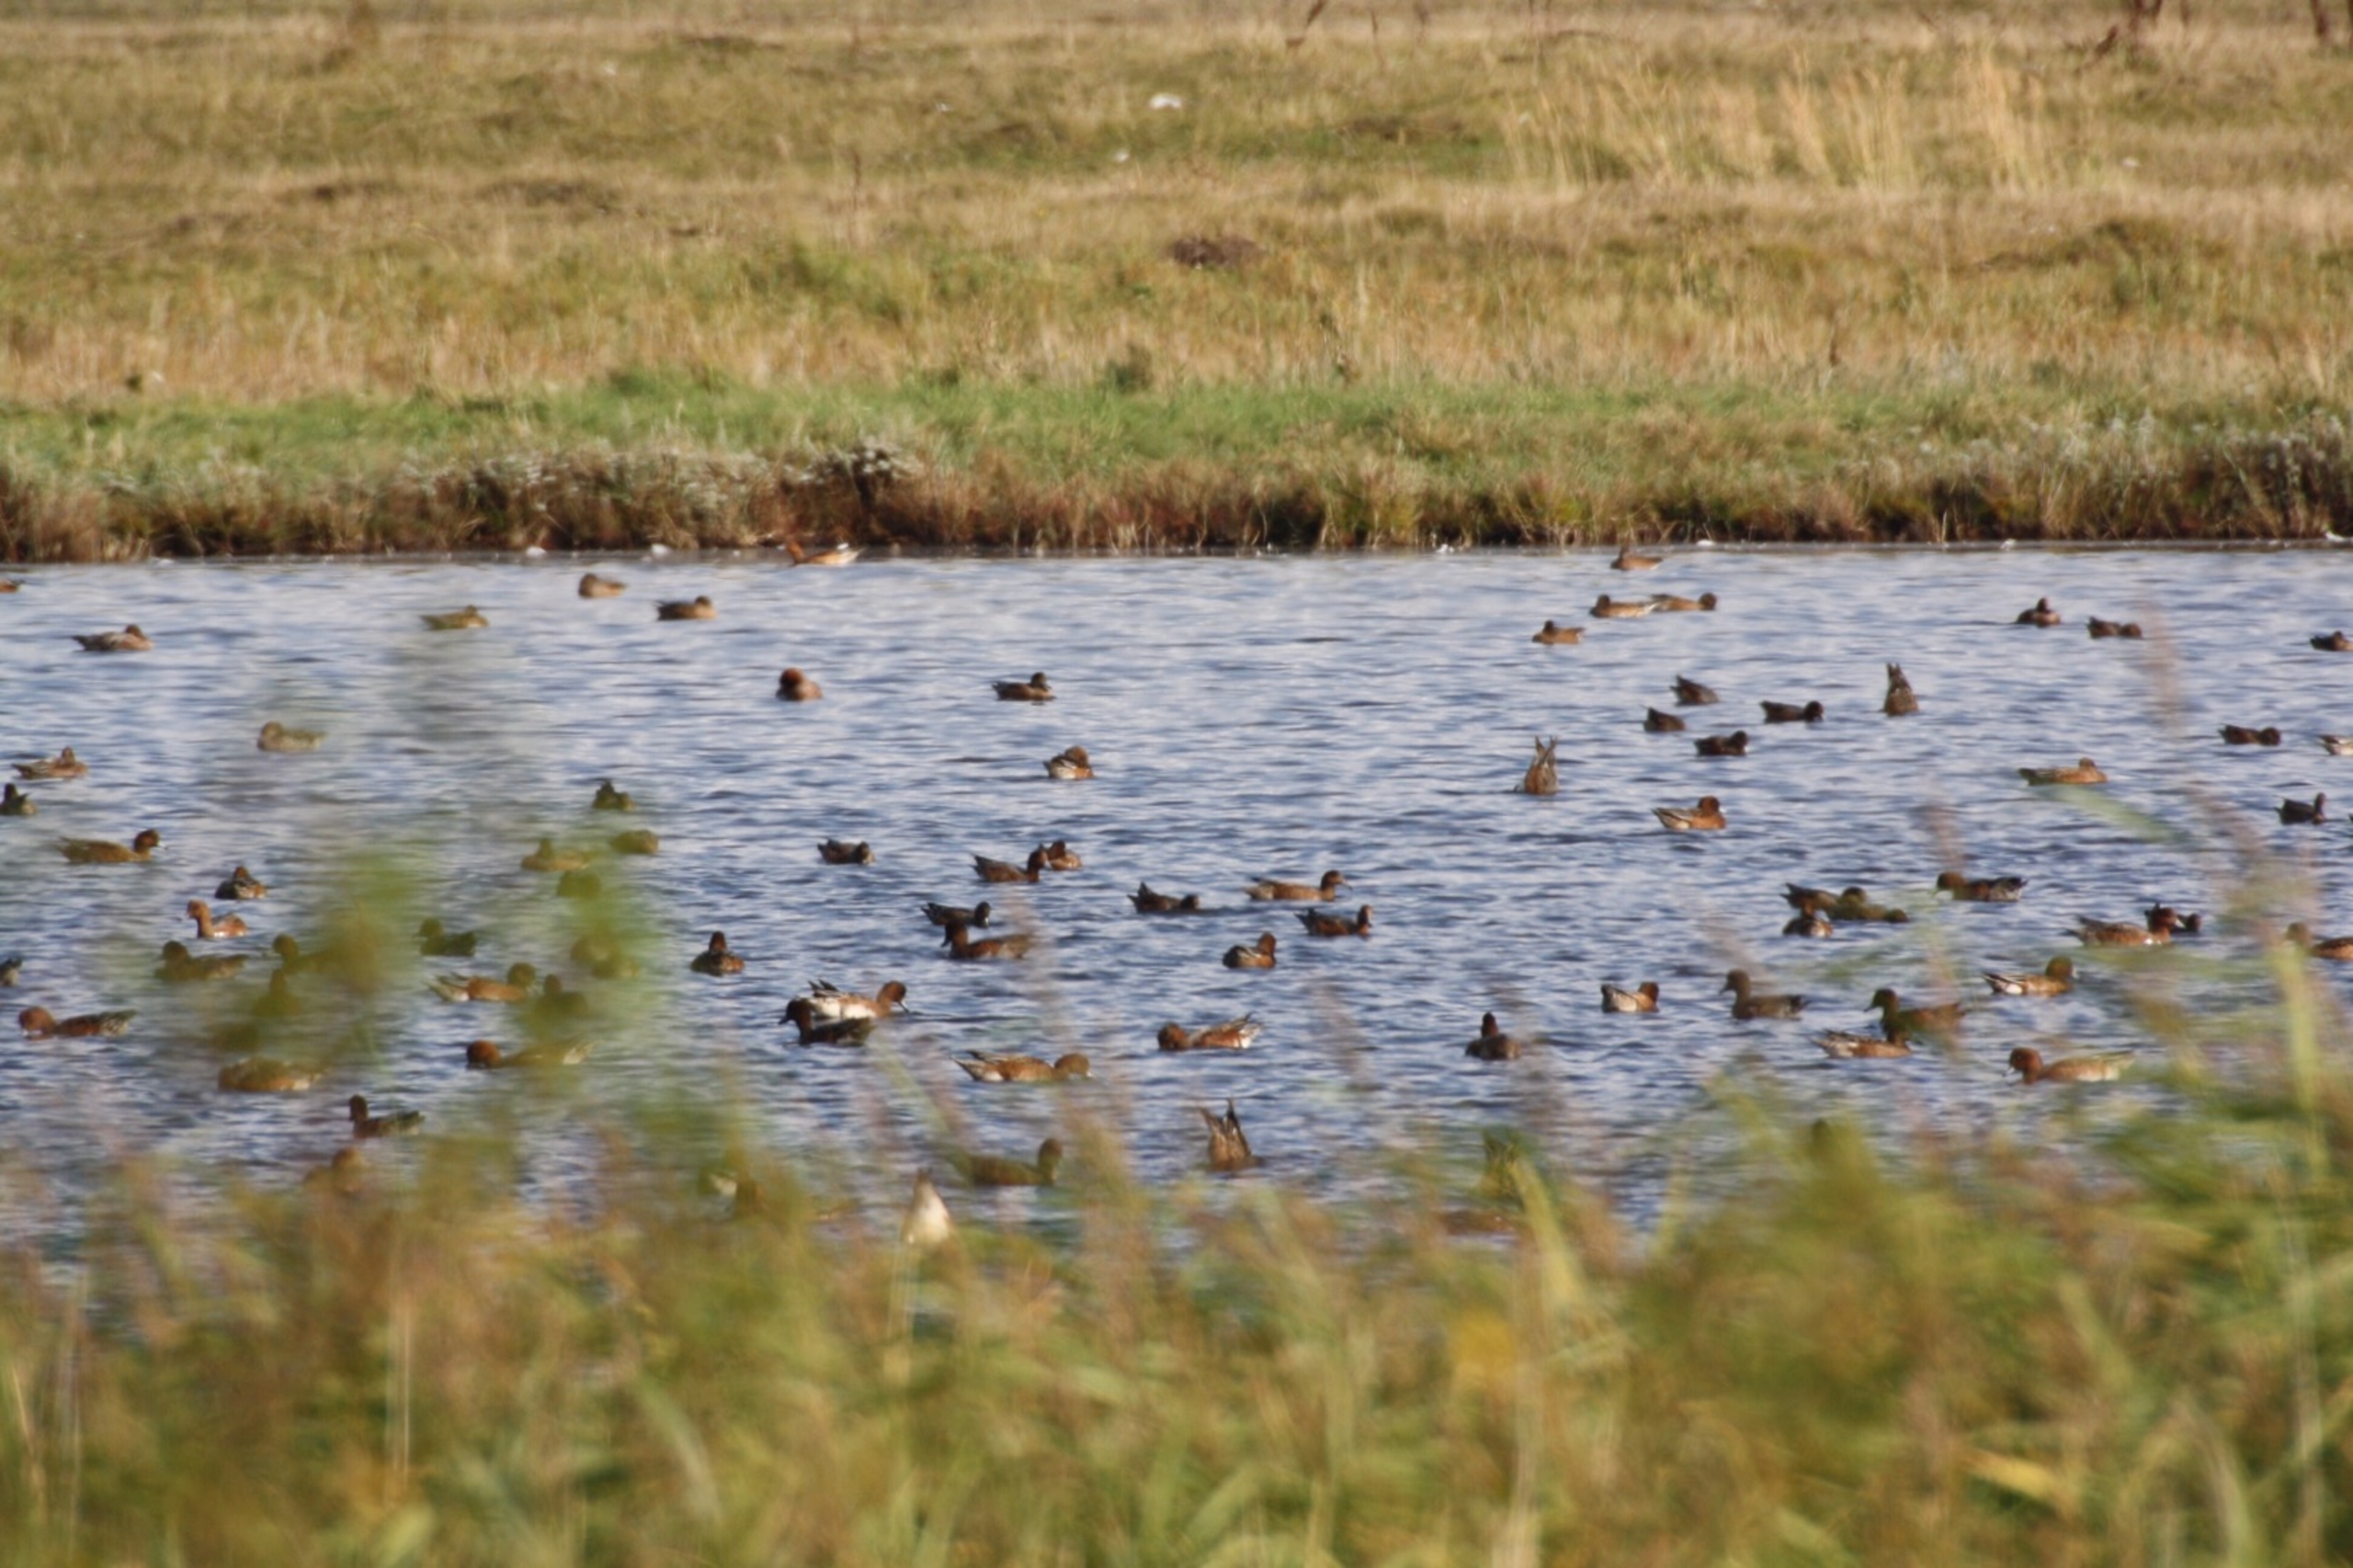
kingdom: Animalia
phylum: Chordata
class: Aves
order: Anseriformes
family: Anatidae
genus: Mareca
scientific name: Mareca penelope
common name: Pibeand
